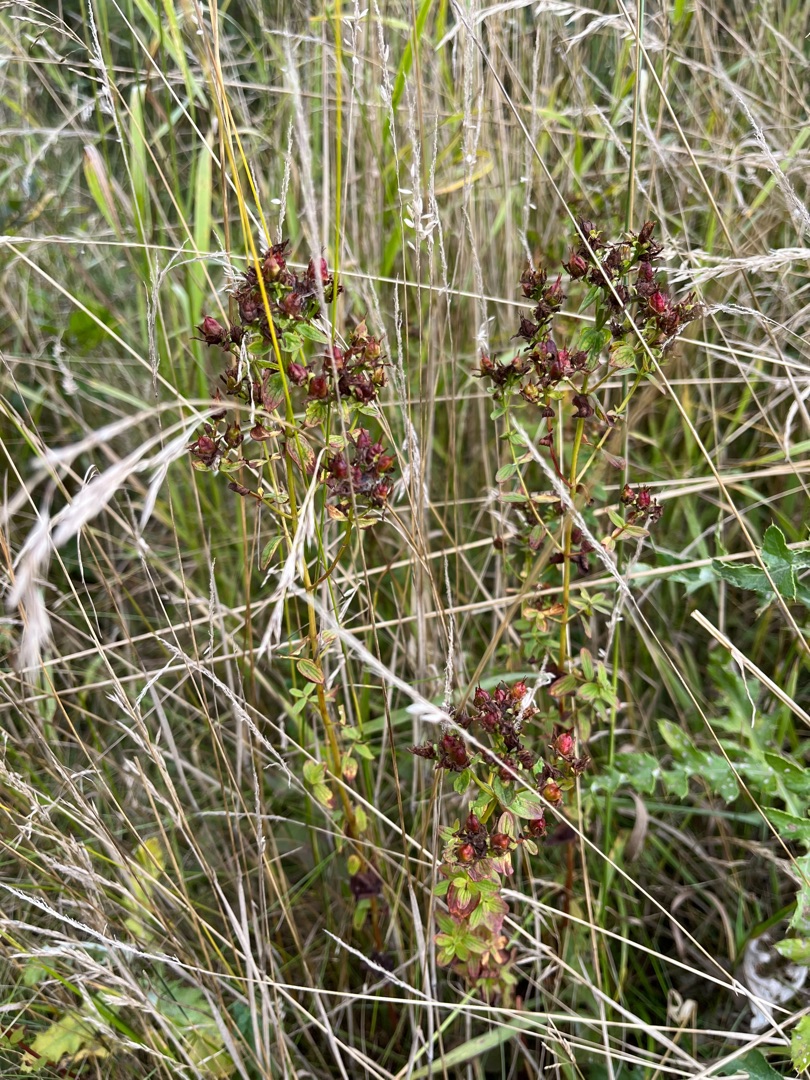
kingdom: Plantae
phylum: Tracheophyta
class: Magnoliopsida
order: Malpighiales
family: Hypericaceae
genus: Hypericum
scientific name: Hypericum maculatum
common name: Kantet perikon
